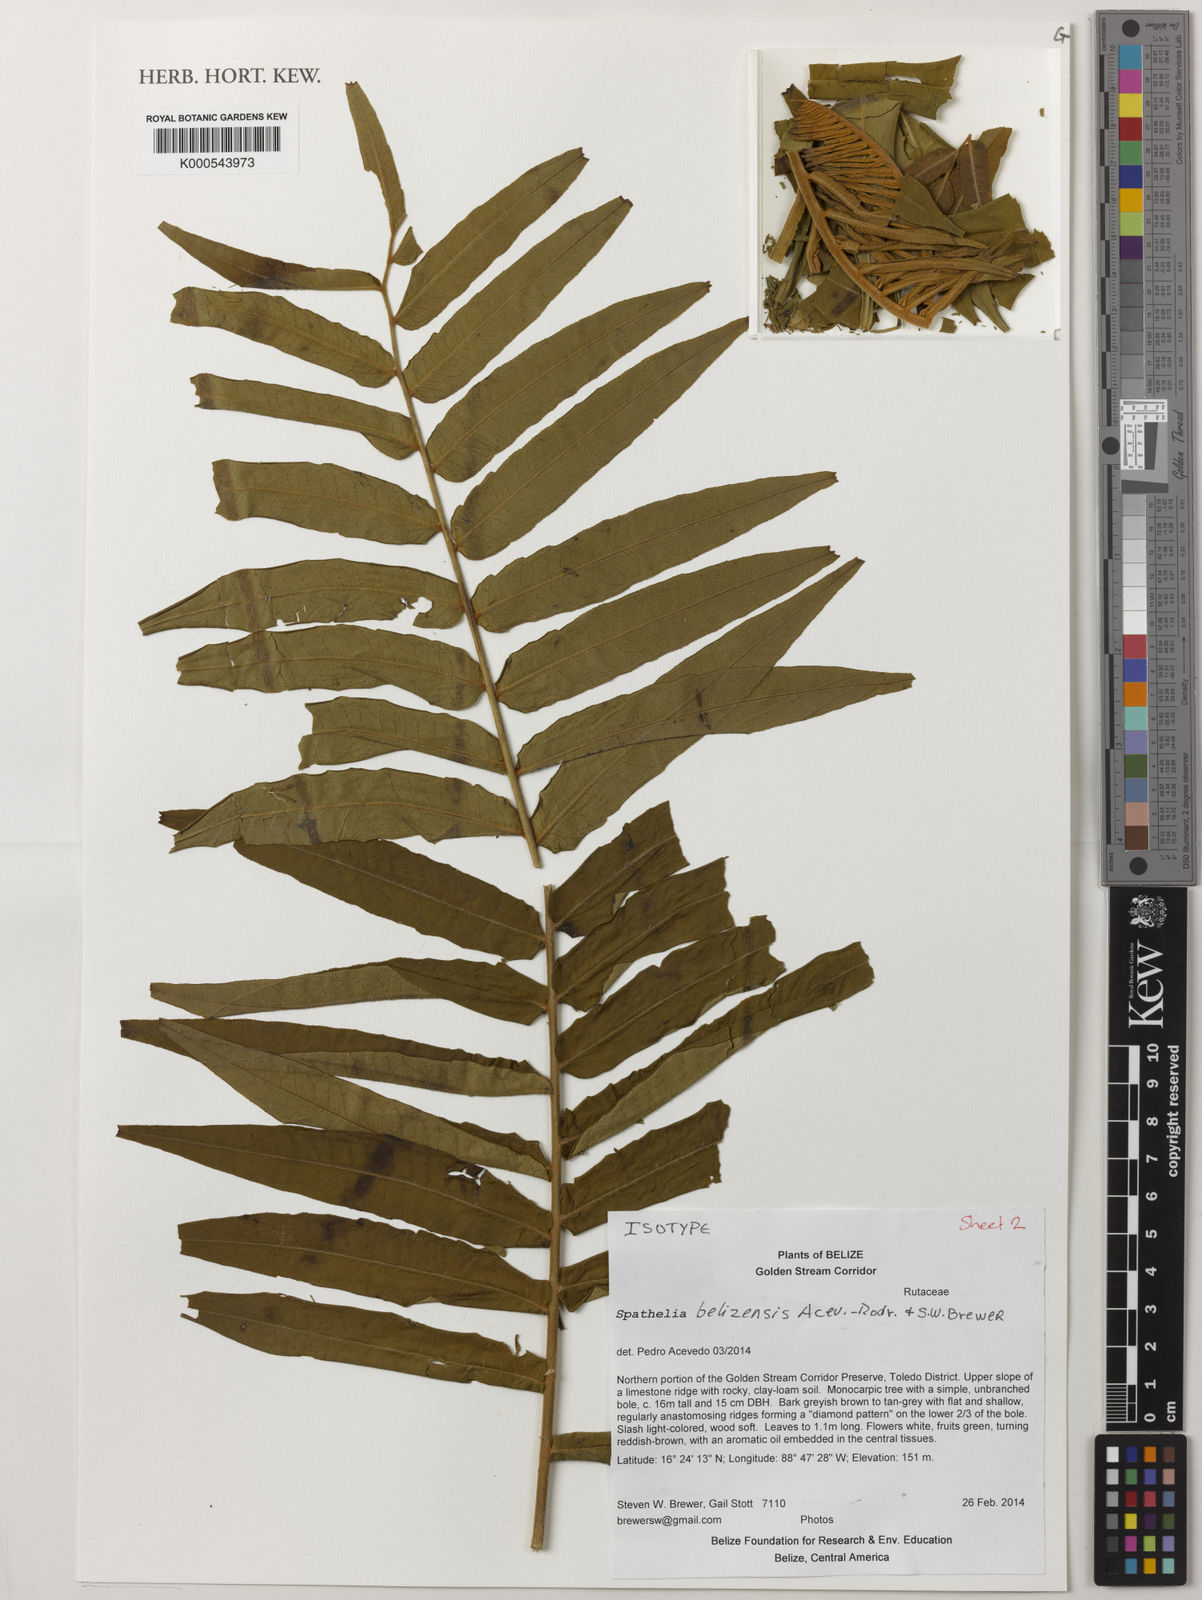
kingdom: Plantae
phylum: Tracheophyta
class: Magnoliopsida
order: Sapindales
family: Rutaceae
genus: Spathelia
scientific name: Spathelia belizensis
